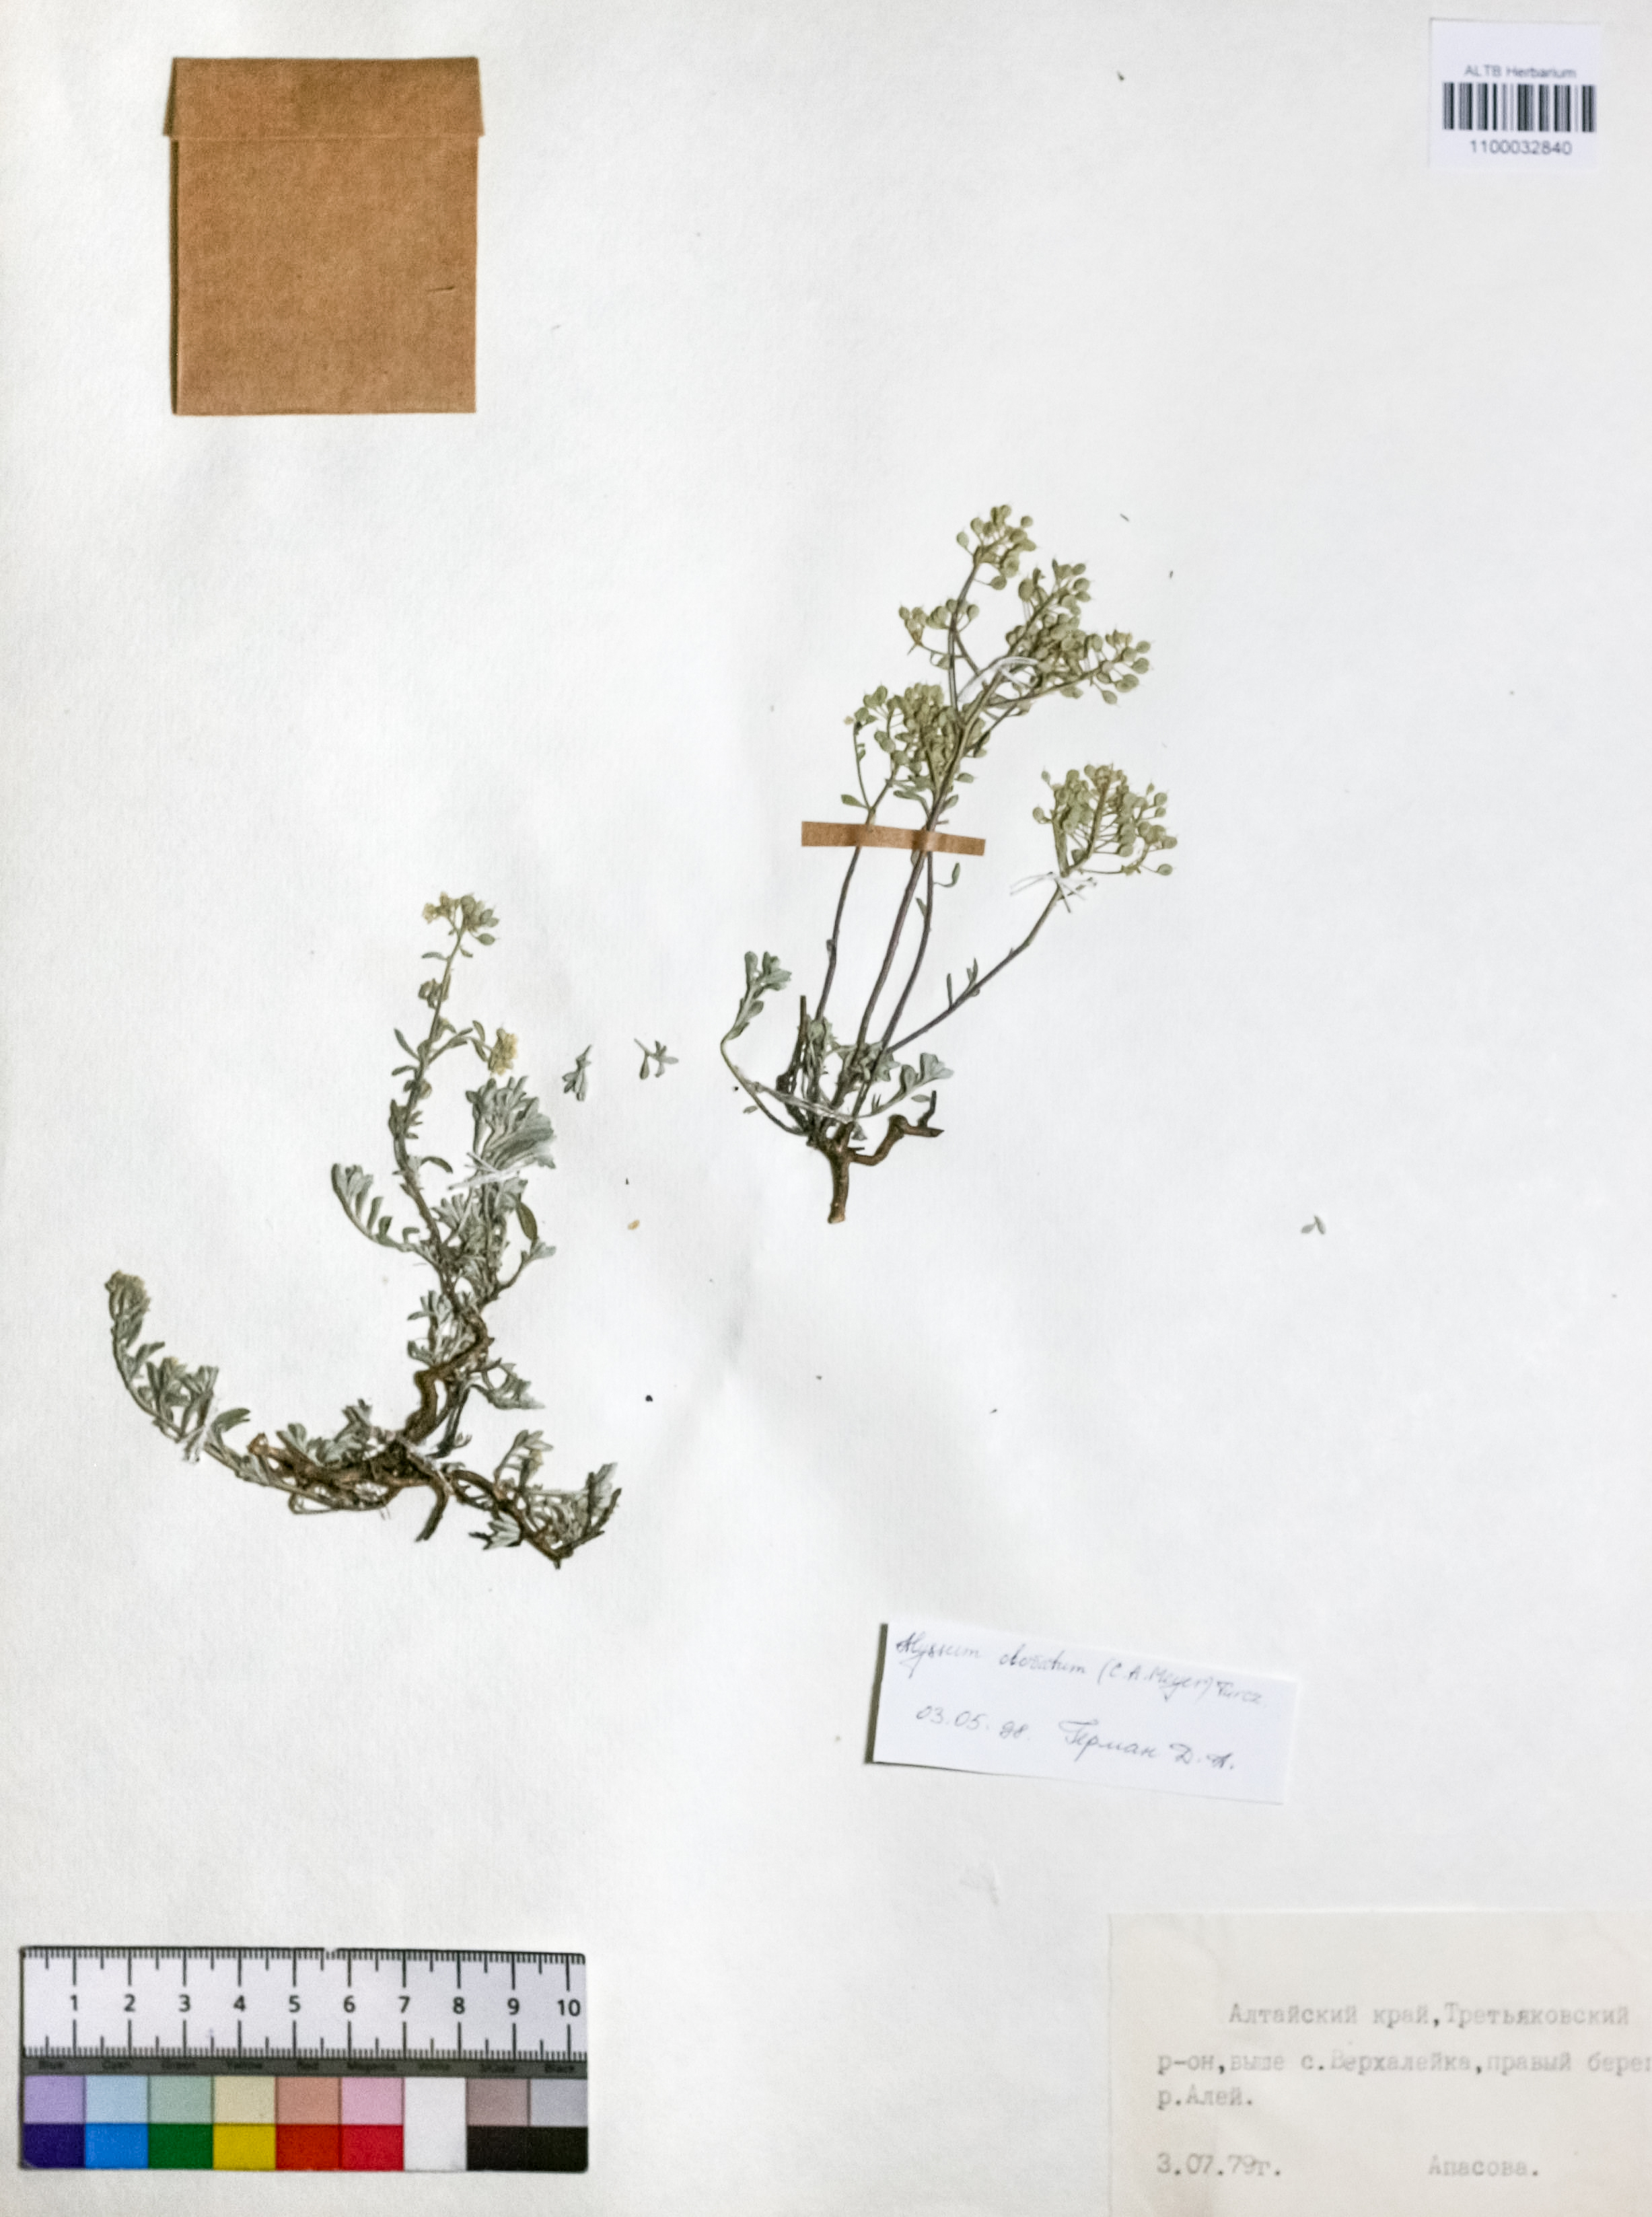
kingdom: Plantae
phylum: Tracheophyta
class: Magnoliopsida
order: Brassicales
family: Brassicaceae
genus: Odontarrhena
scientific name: Odontarrhena obovata
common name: American alyssum
